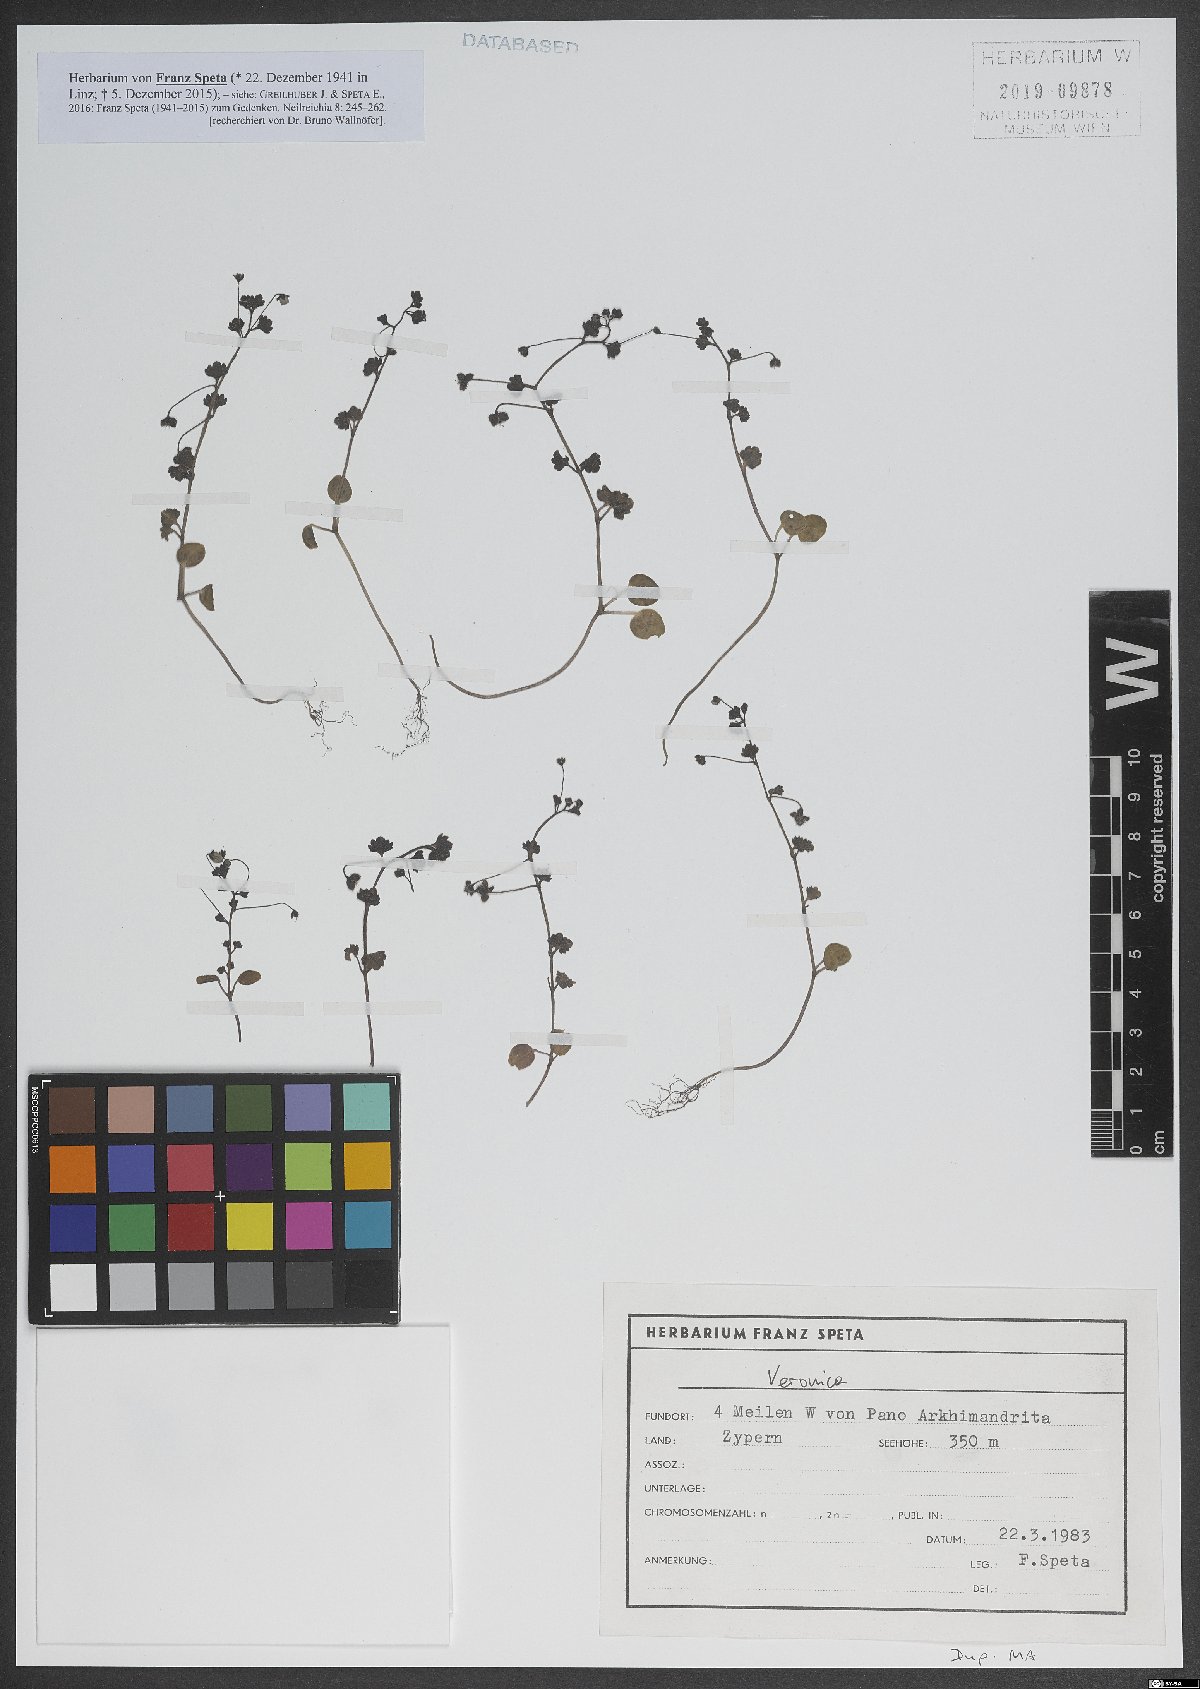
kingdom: Plantae
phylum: Tracheophyta
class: Magnoliopsida
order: Lamiales
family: Plantaginaceae
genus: Veronica
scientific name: Veronica
